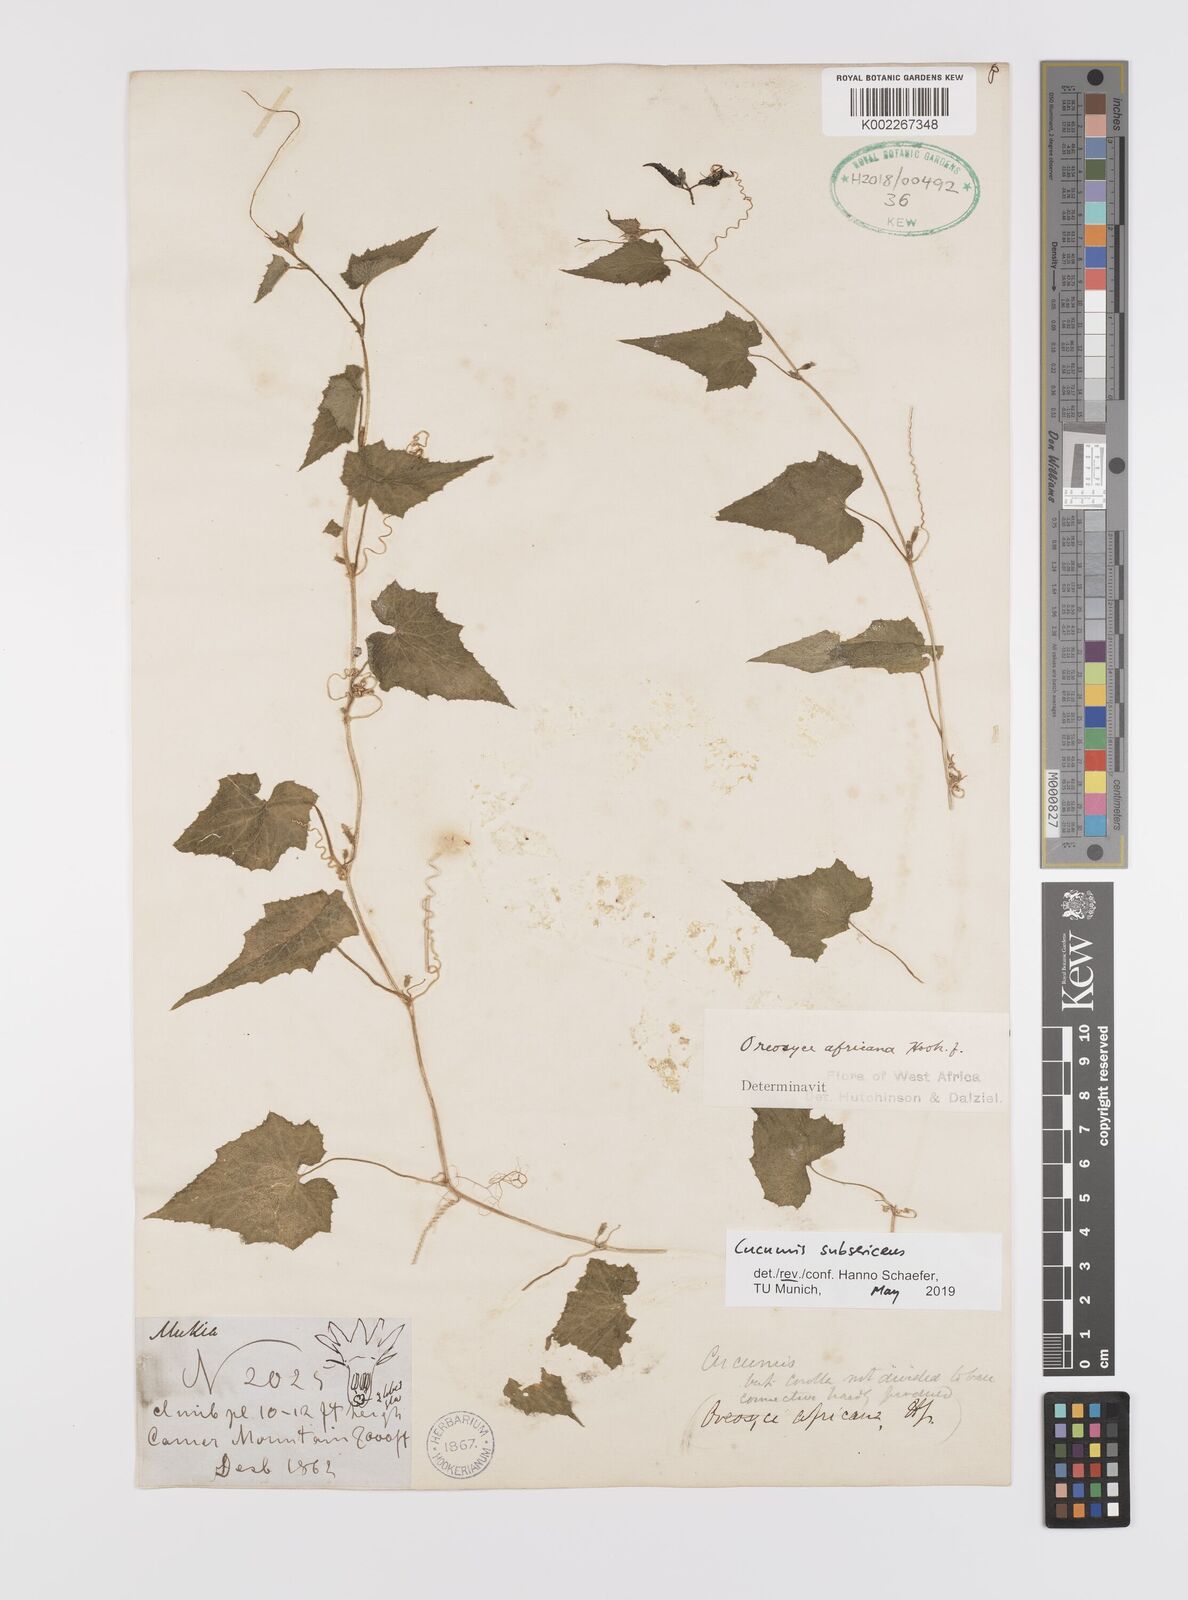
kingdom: Plantae
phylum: Tracheophyta
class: Magnoliopsida
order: Cucurbitales
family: Cucurbitaceae
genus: Cucumis
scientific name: Cucumis oreosyce
